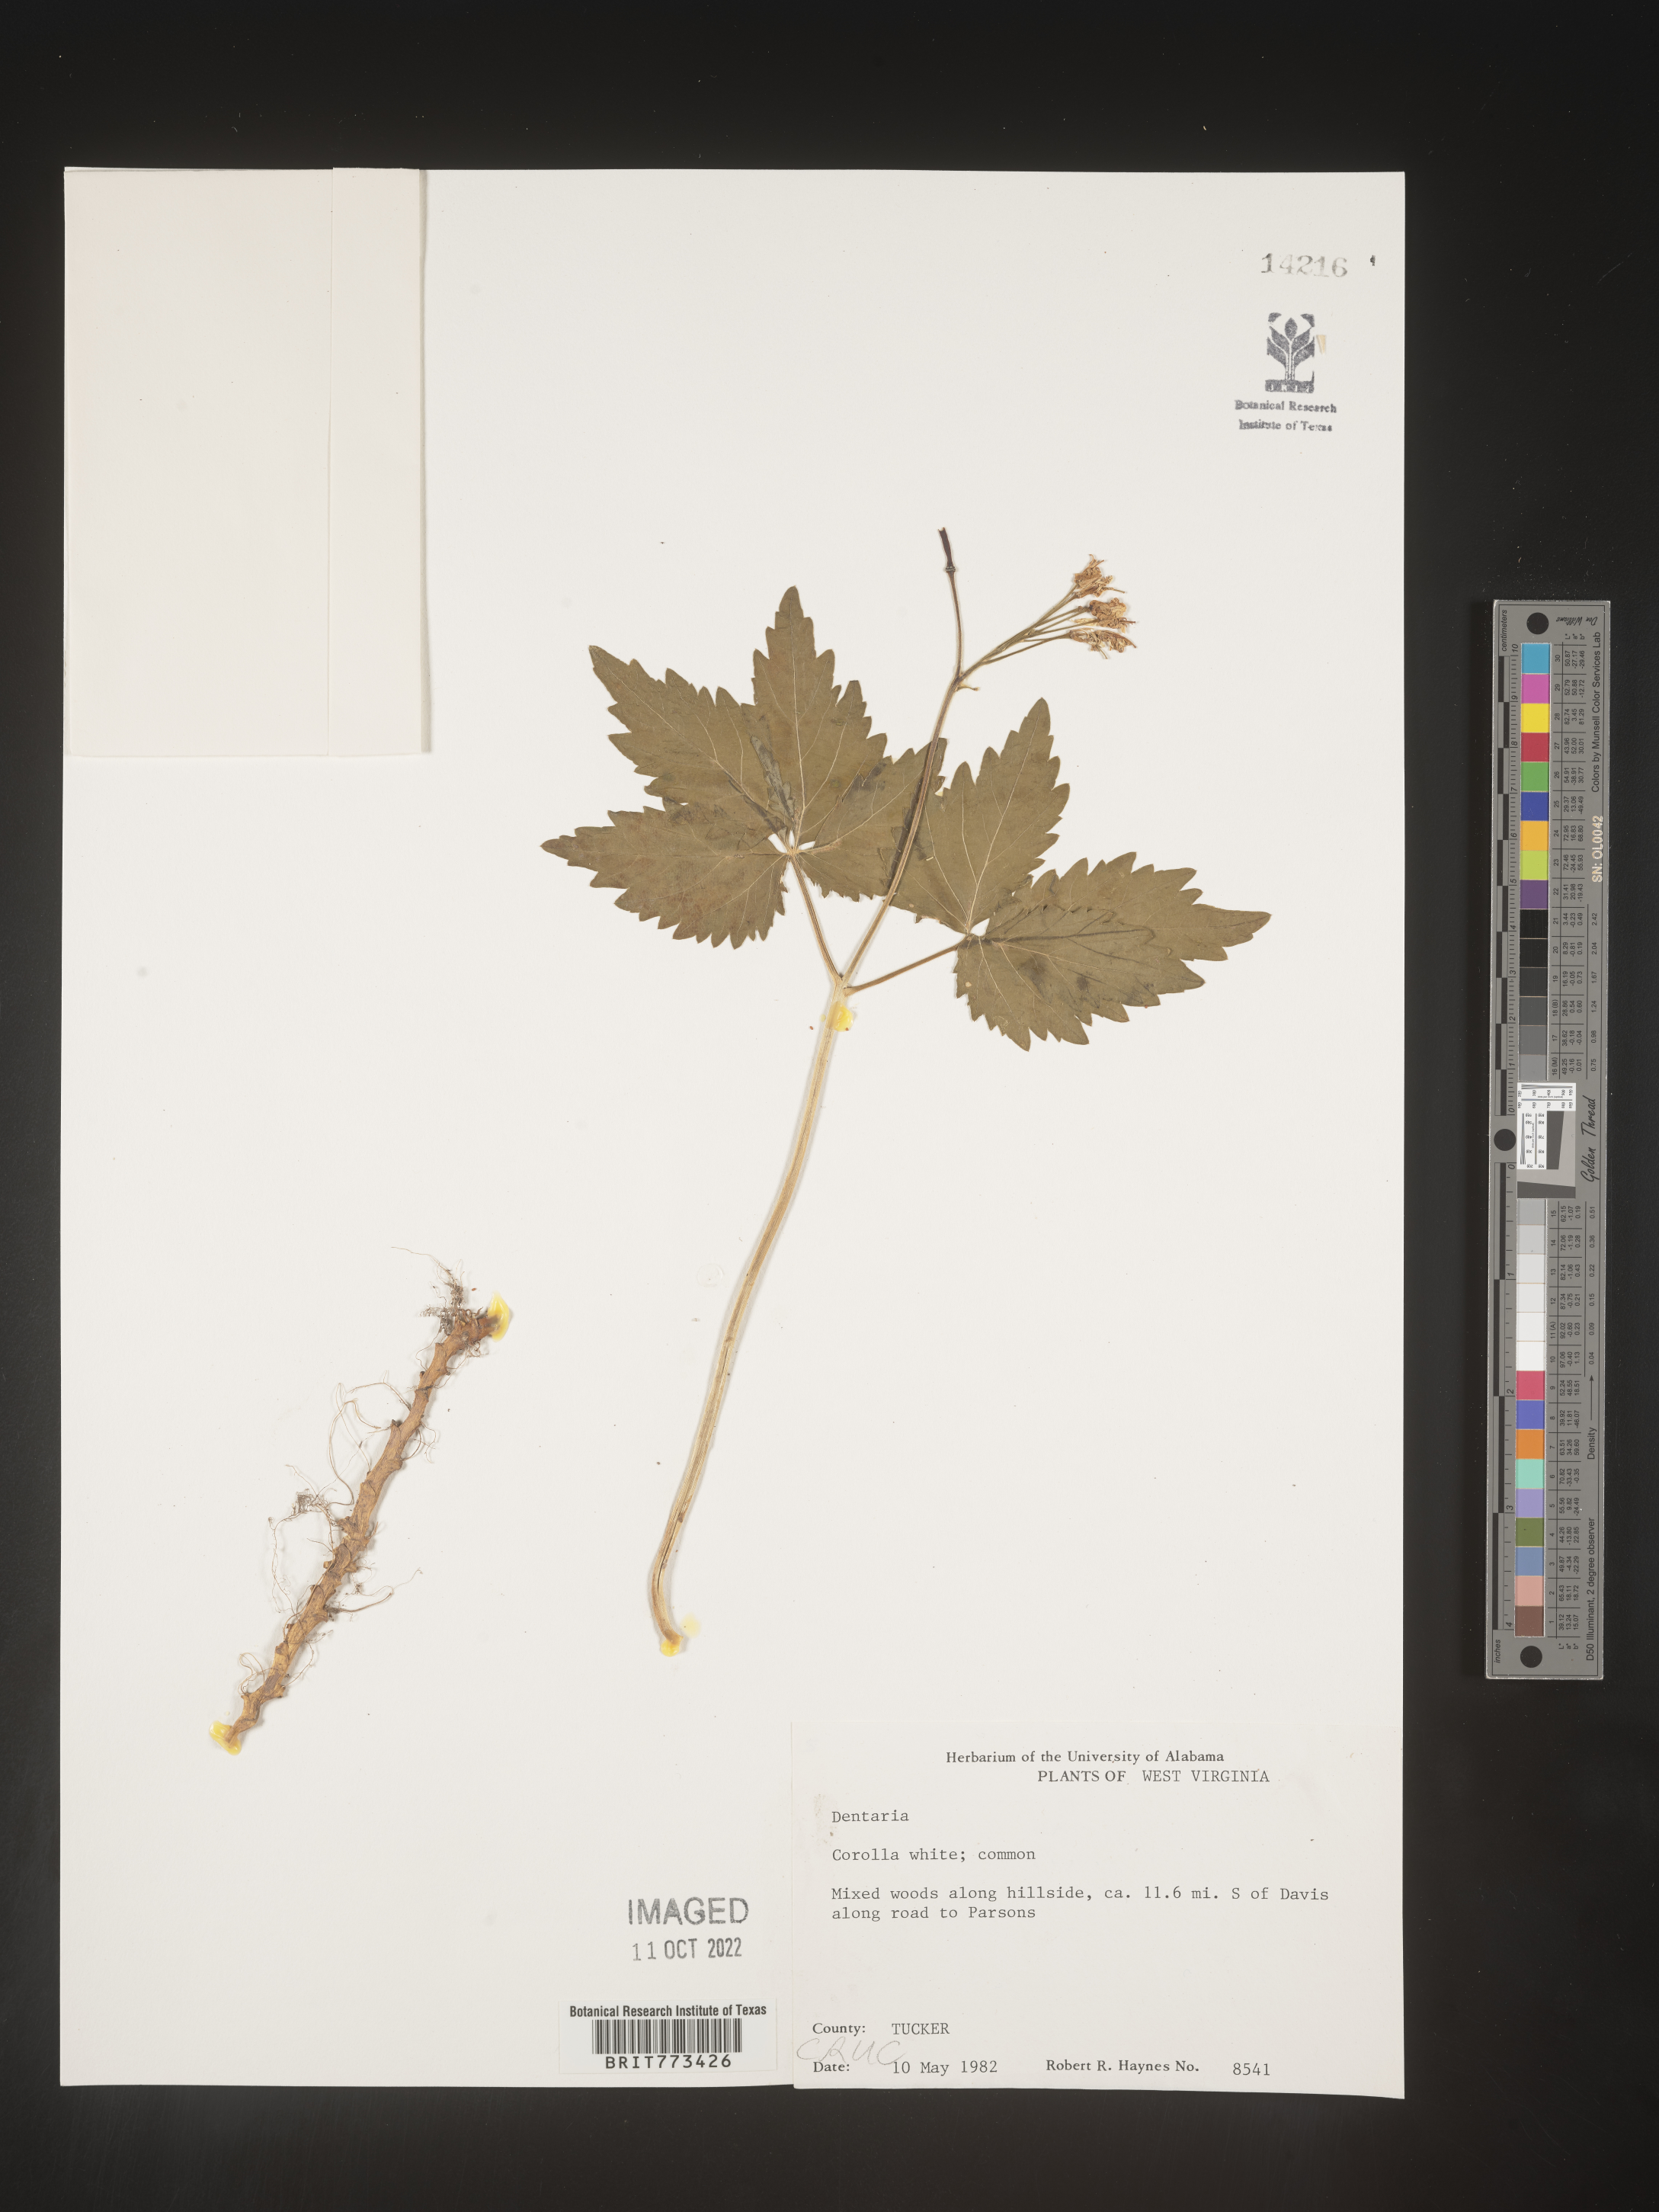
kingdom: Plantae
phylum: Tracheophyta
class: Magnoliopsida
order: Brassicales
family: Brassicaceae
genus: Cardamine
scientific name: Cardamine
